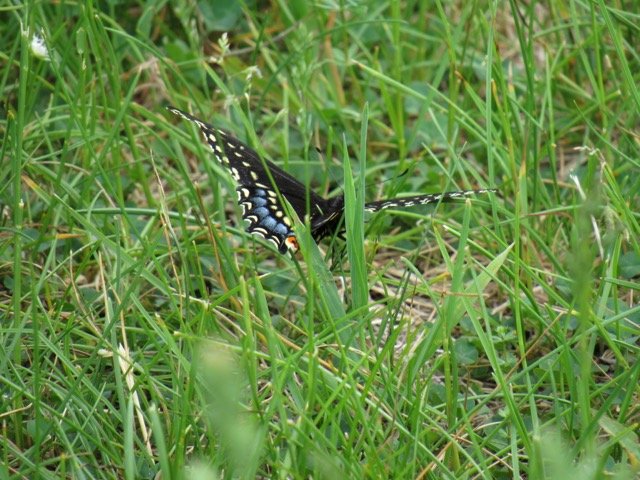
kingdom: Animalia
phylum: Arthropoda
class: Insecta
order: Lepidoptera
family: Papilionidae
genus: Papilio
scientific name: Papilio polyxenes
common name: Black Swallowtail
